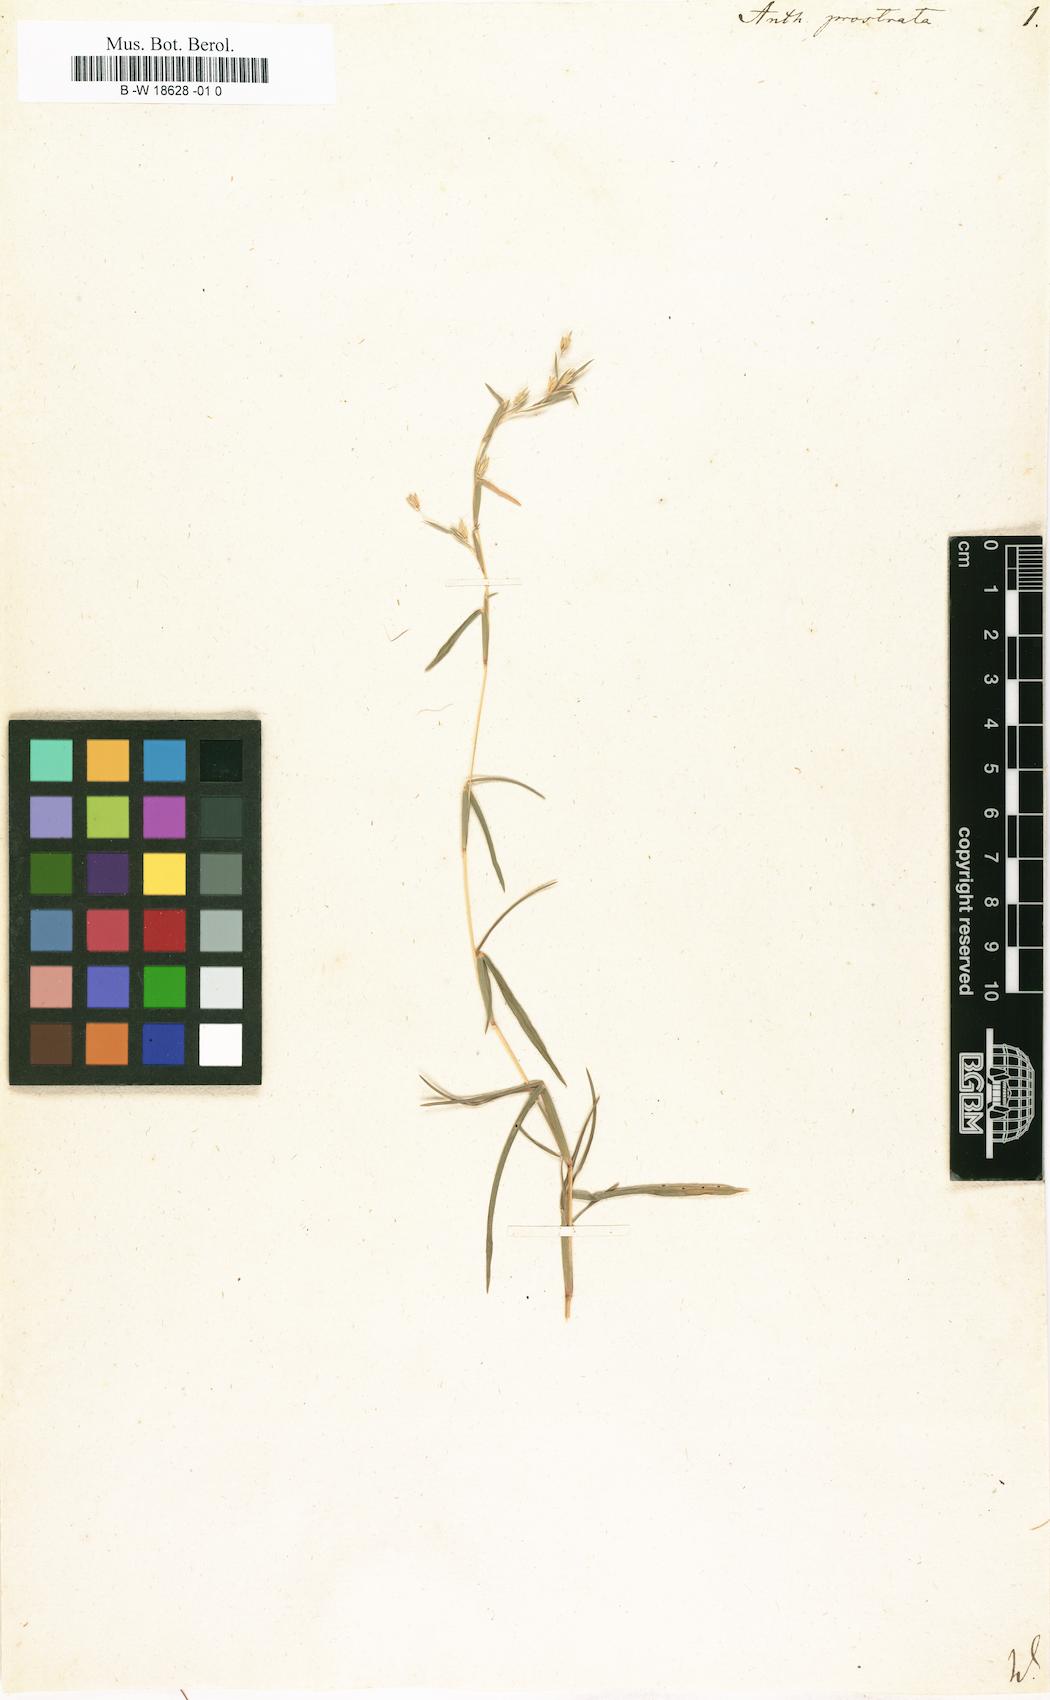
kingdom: Plantae
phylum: Tracheophyta
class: Liliopsida
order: Poales
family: Poaceae
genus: Iseilema
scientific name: Iseilema prostratum
